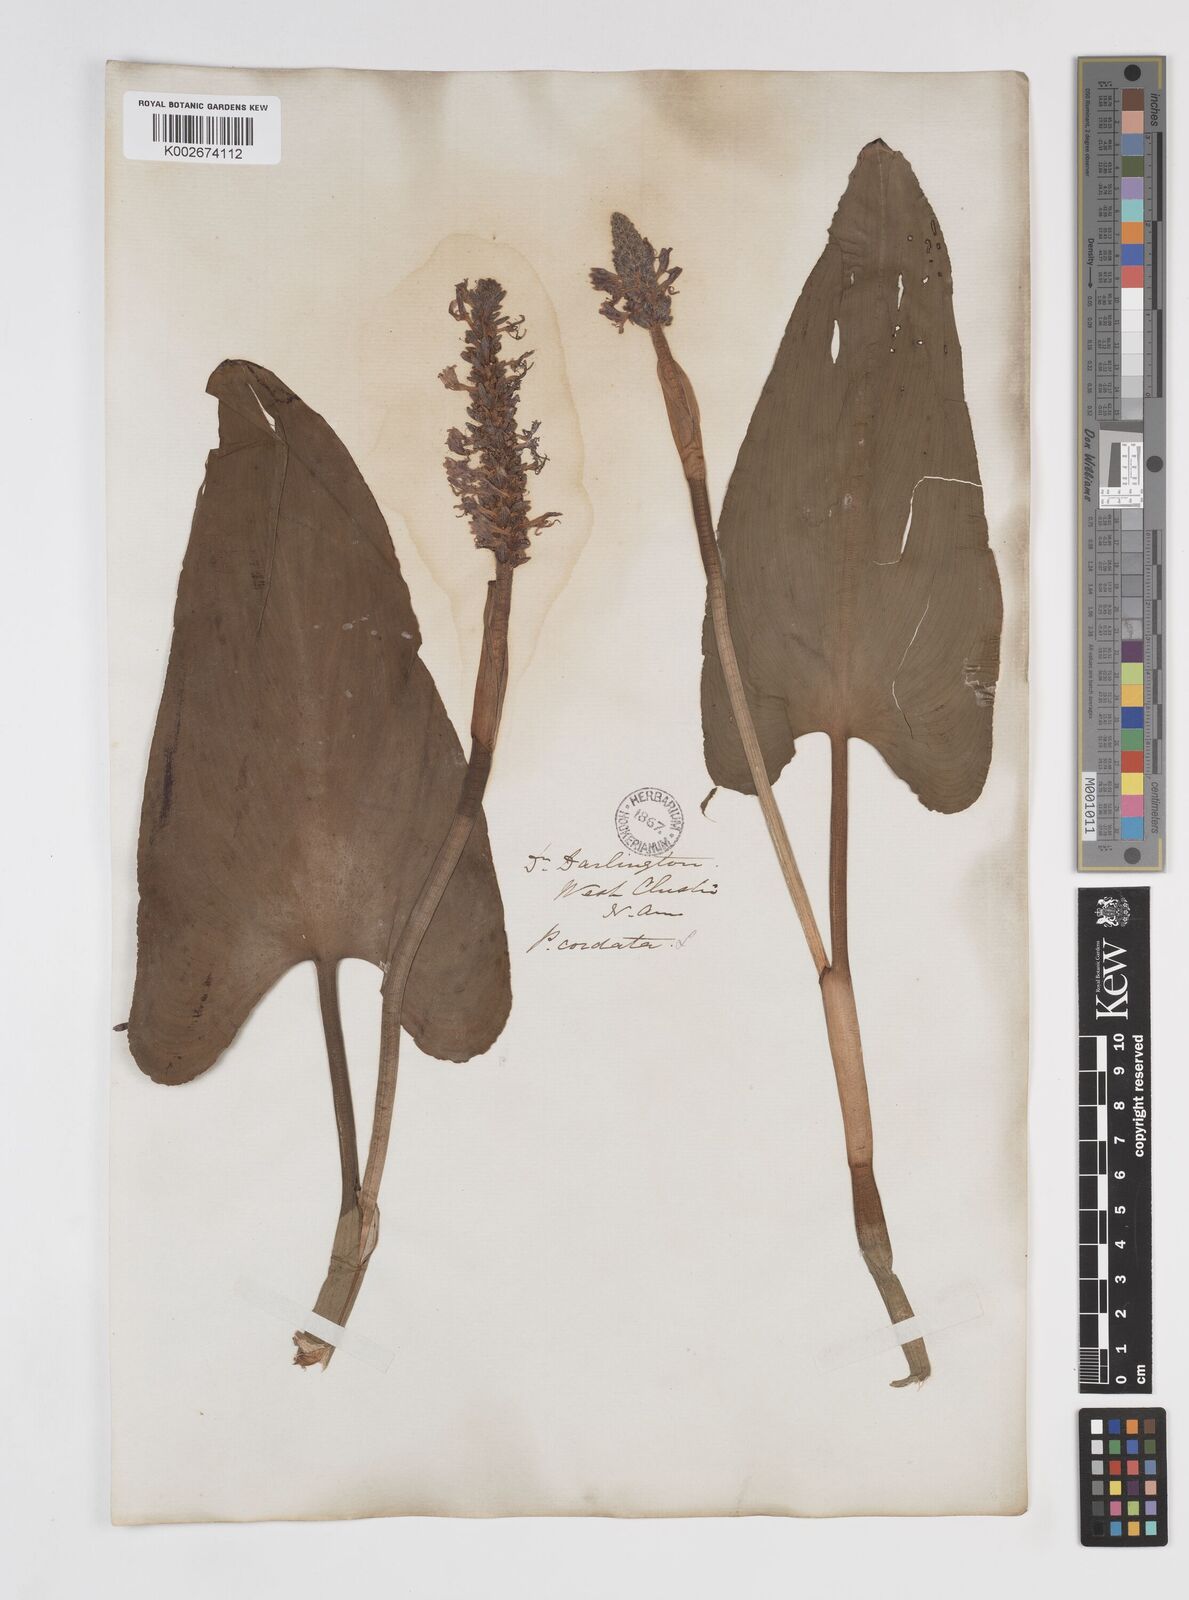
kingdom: Plantae
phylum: Tracheophyta
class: Liliopsida
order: Commelinales
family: Pontederiaceae
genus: Pontederia
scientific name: Pontederia cordata
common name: Pickerelweed
